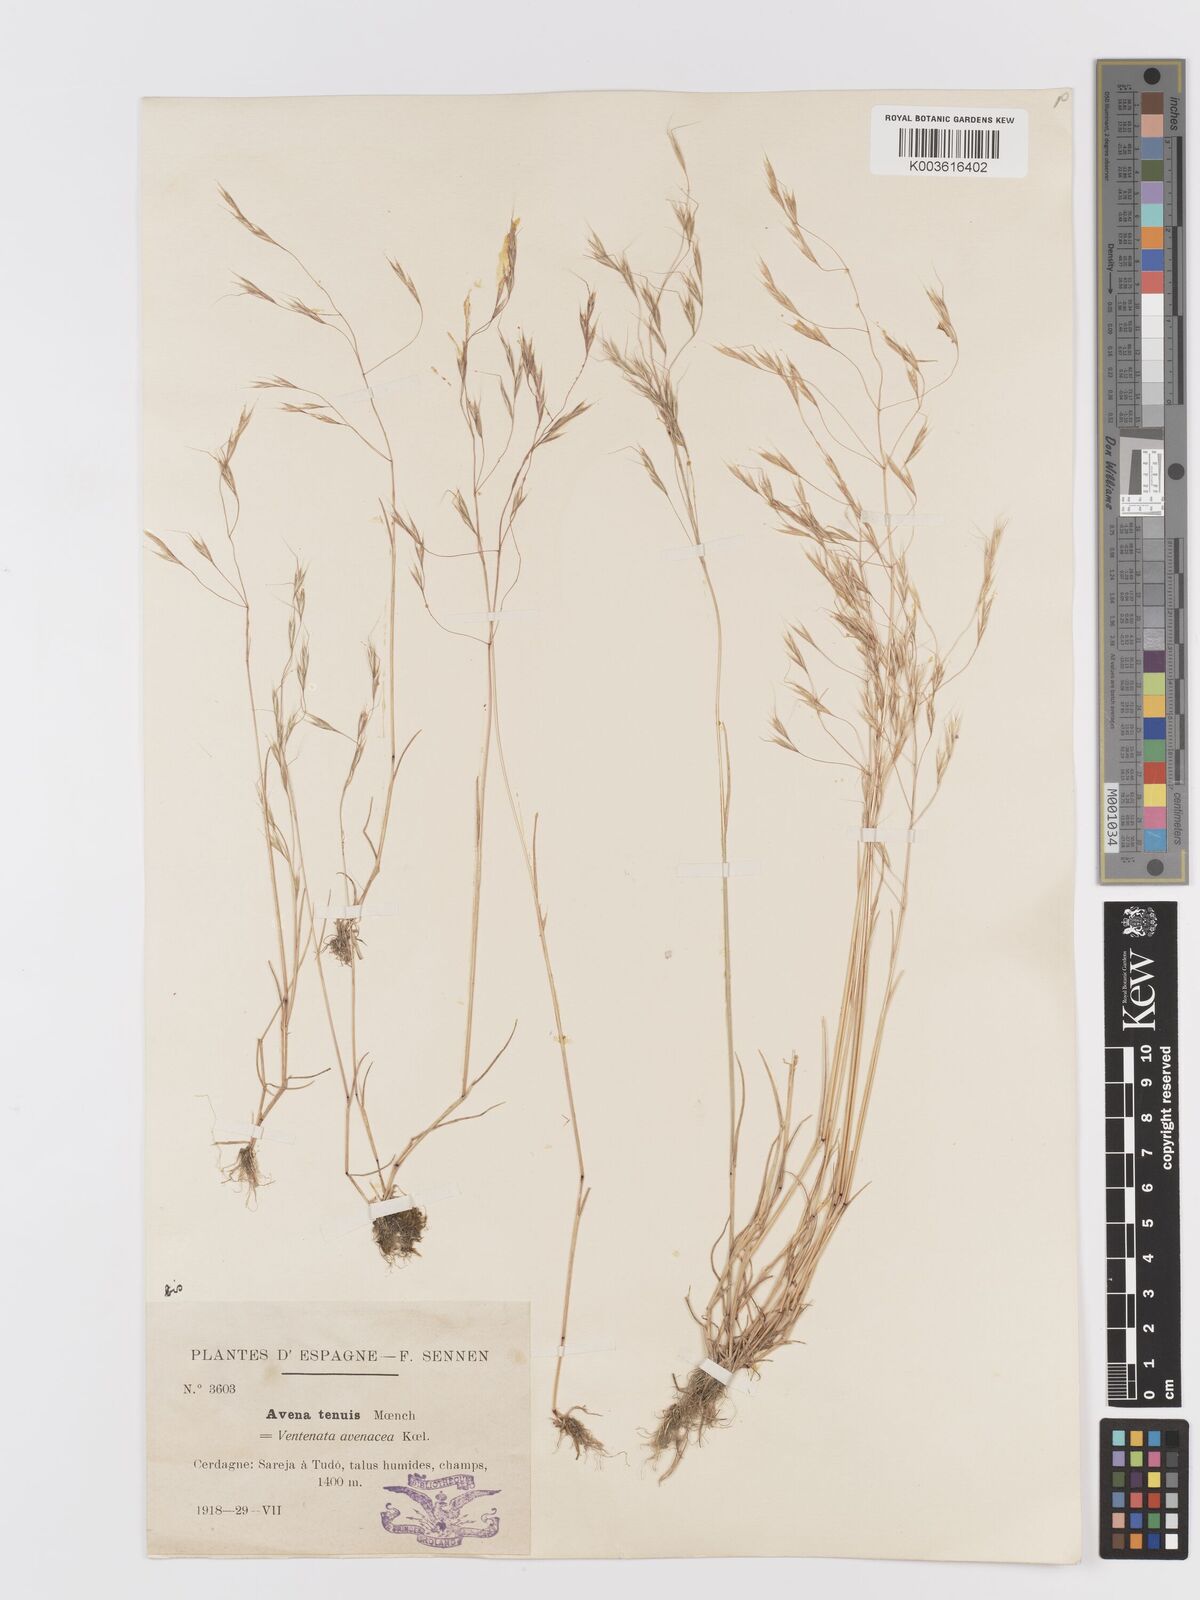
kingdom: Plantae
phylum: Tracheophyta
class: Liliopsida
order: Poales
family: Poaceae
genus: Ventenata
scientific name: Ventenata dubia
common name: North africa grass
